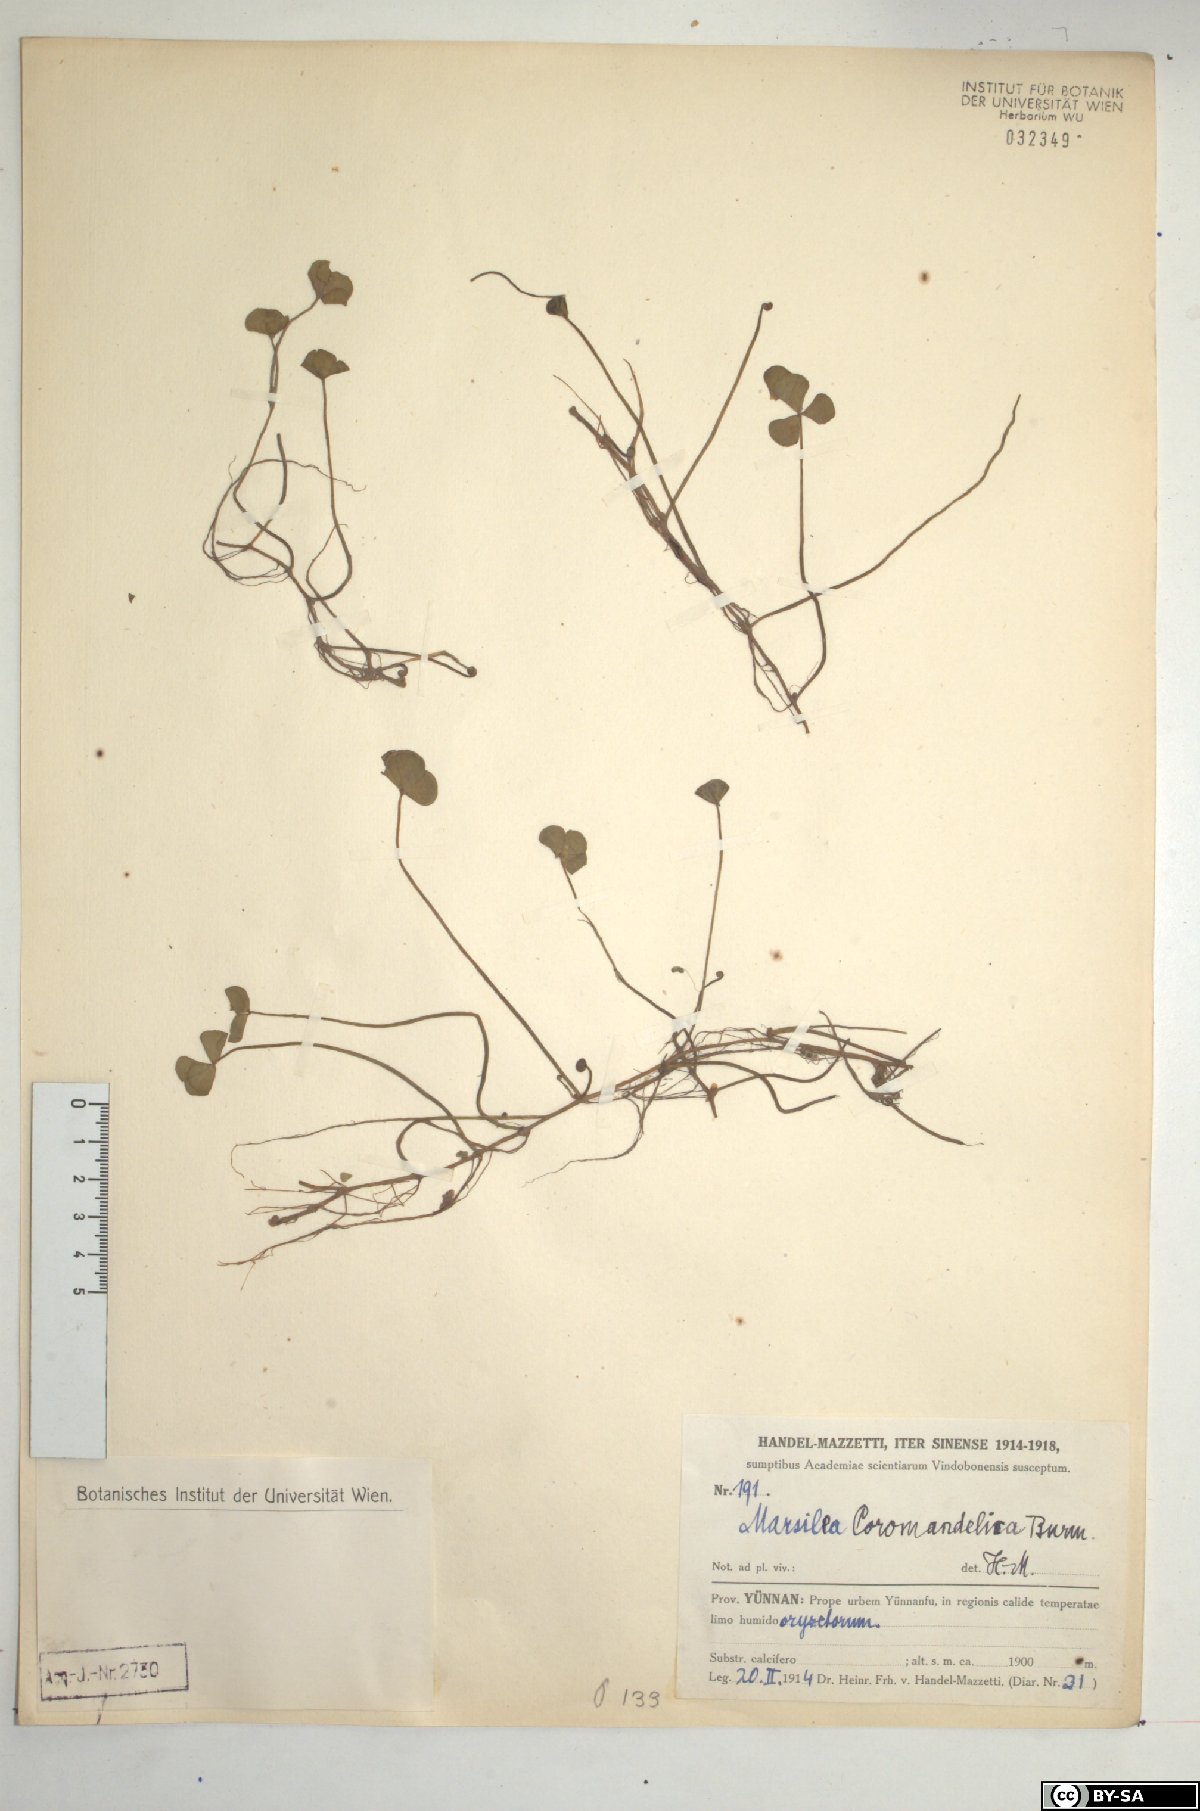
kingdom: Plantae
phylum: Tracheophyta
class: Polypodiopsida
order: Salviniales
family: Marsileaceae
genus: Marsilea
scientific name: Marsilea
